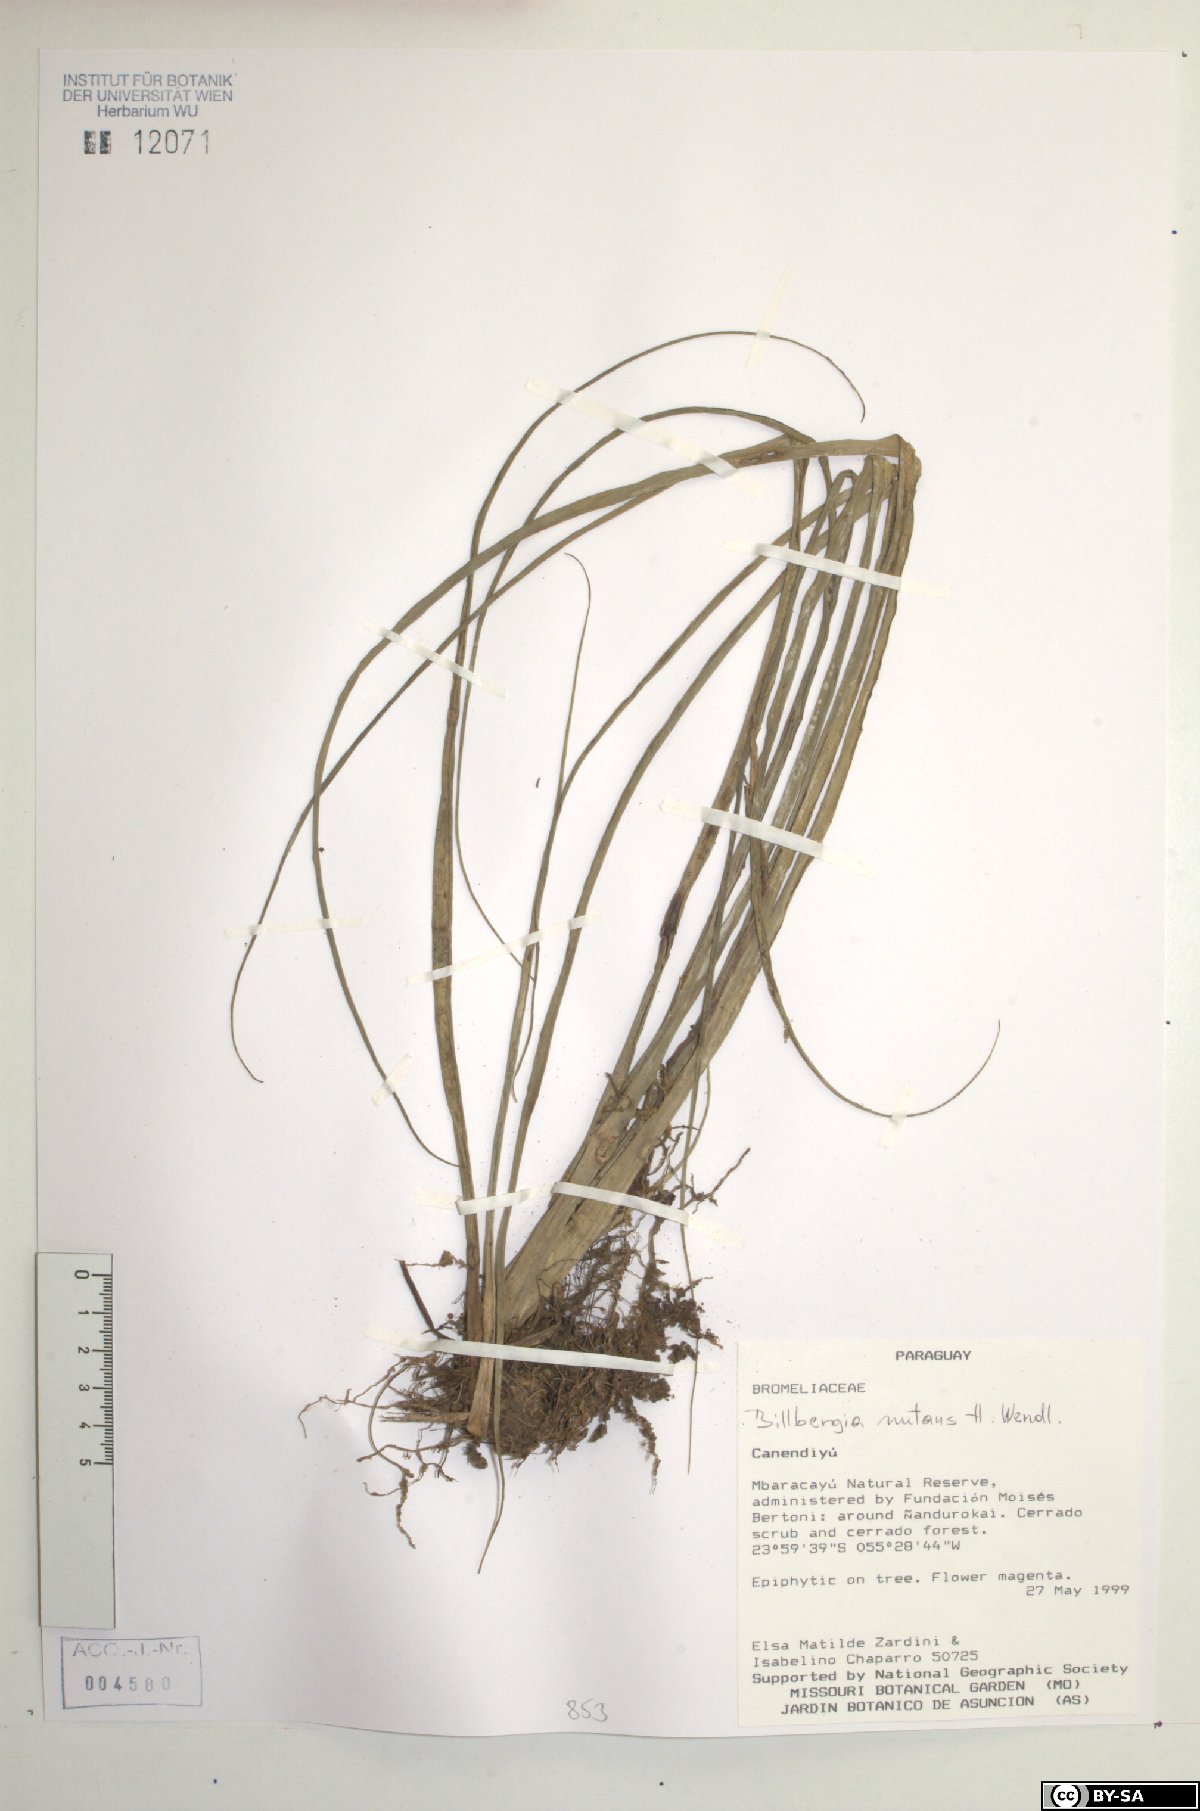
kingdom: Plantae
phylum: Tracheophyta
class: Liliopsida
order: Poales
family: Bromeliaceae
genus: Billbergia
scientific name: Billbergia nutans
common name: Friendship-plant
